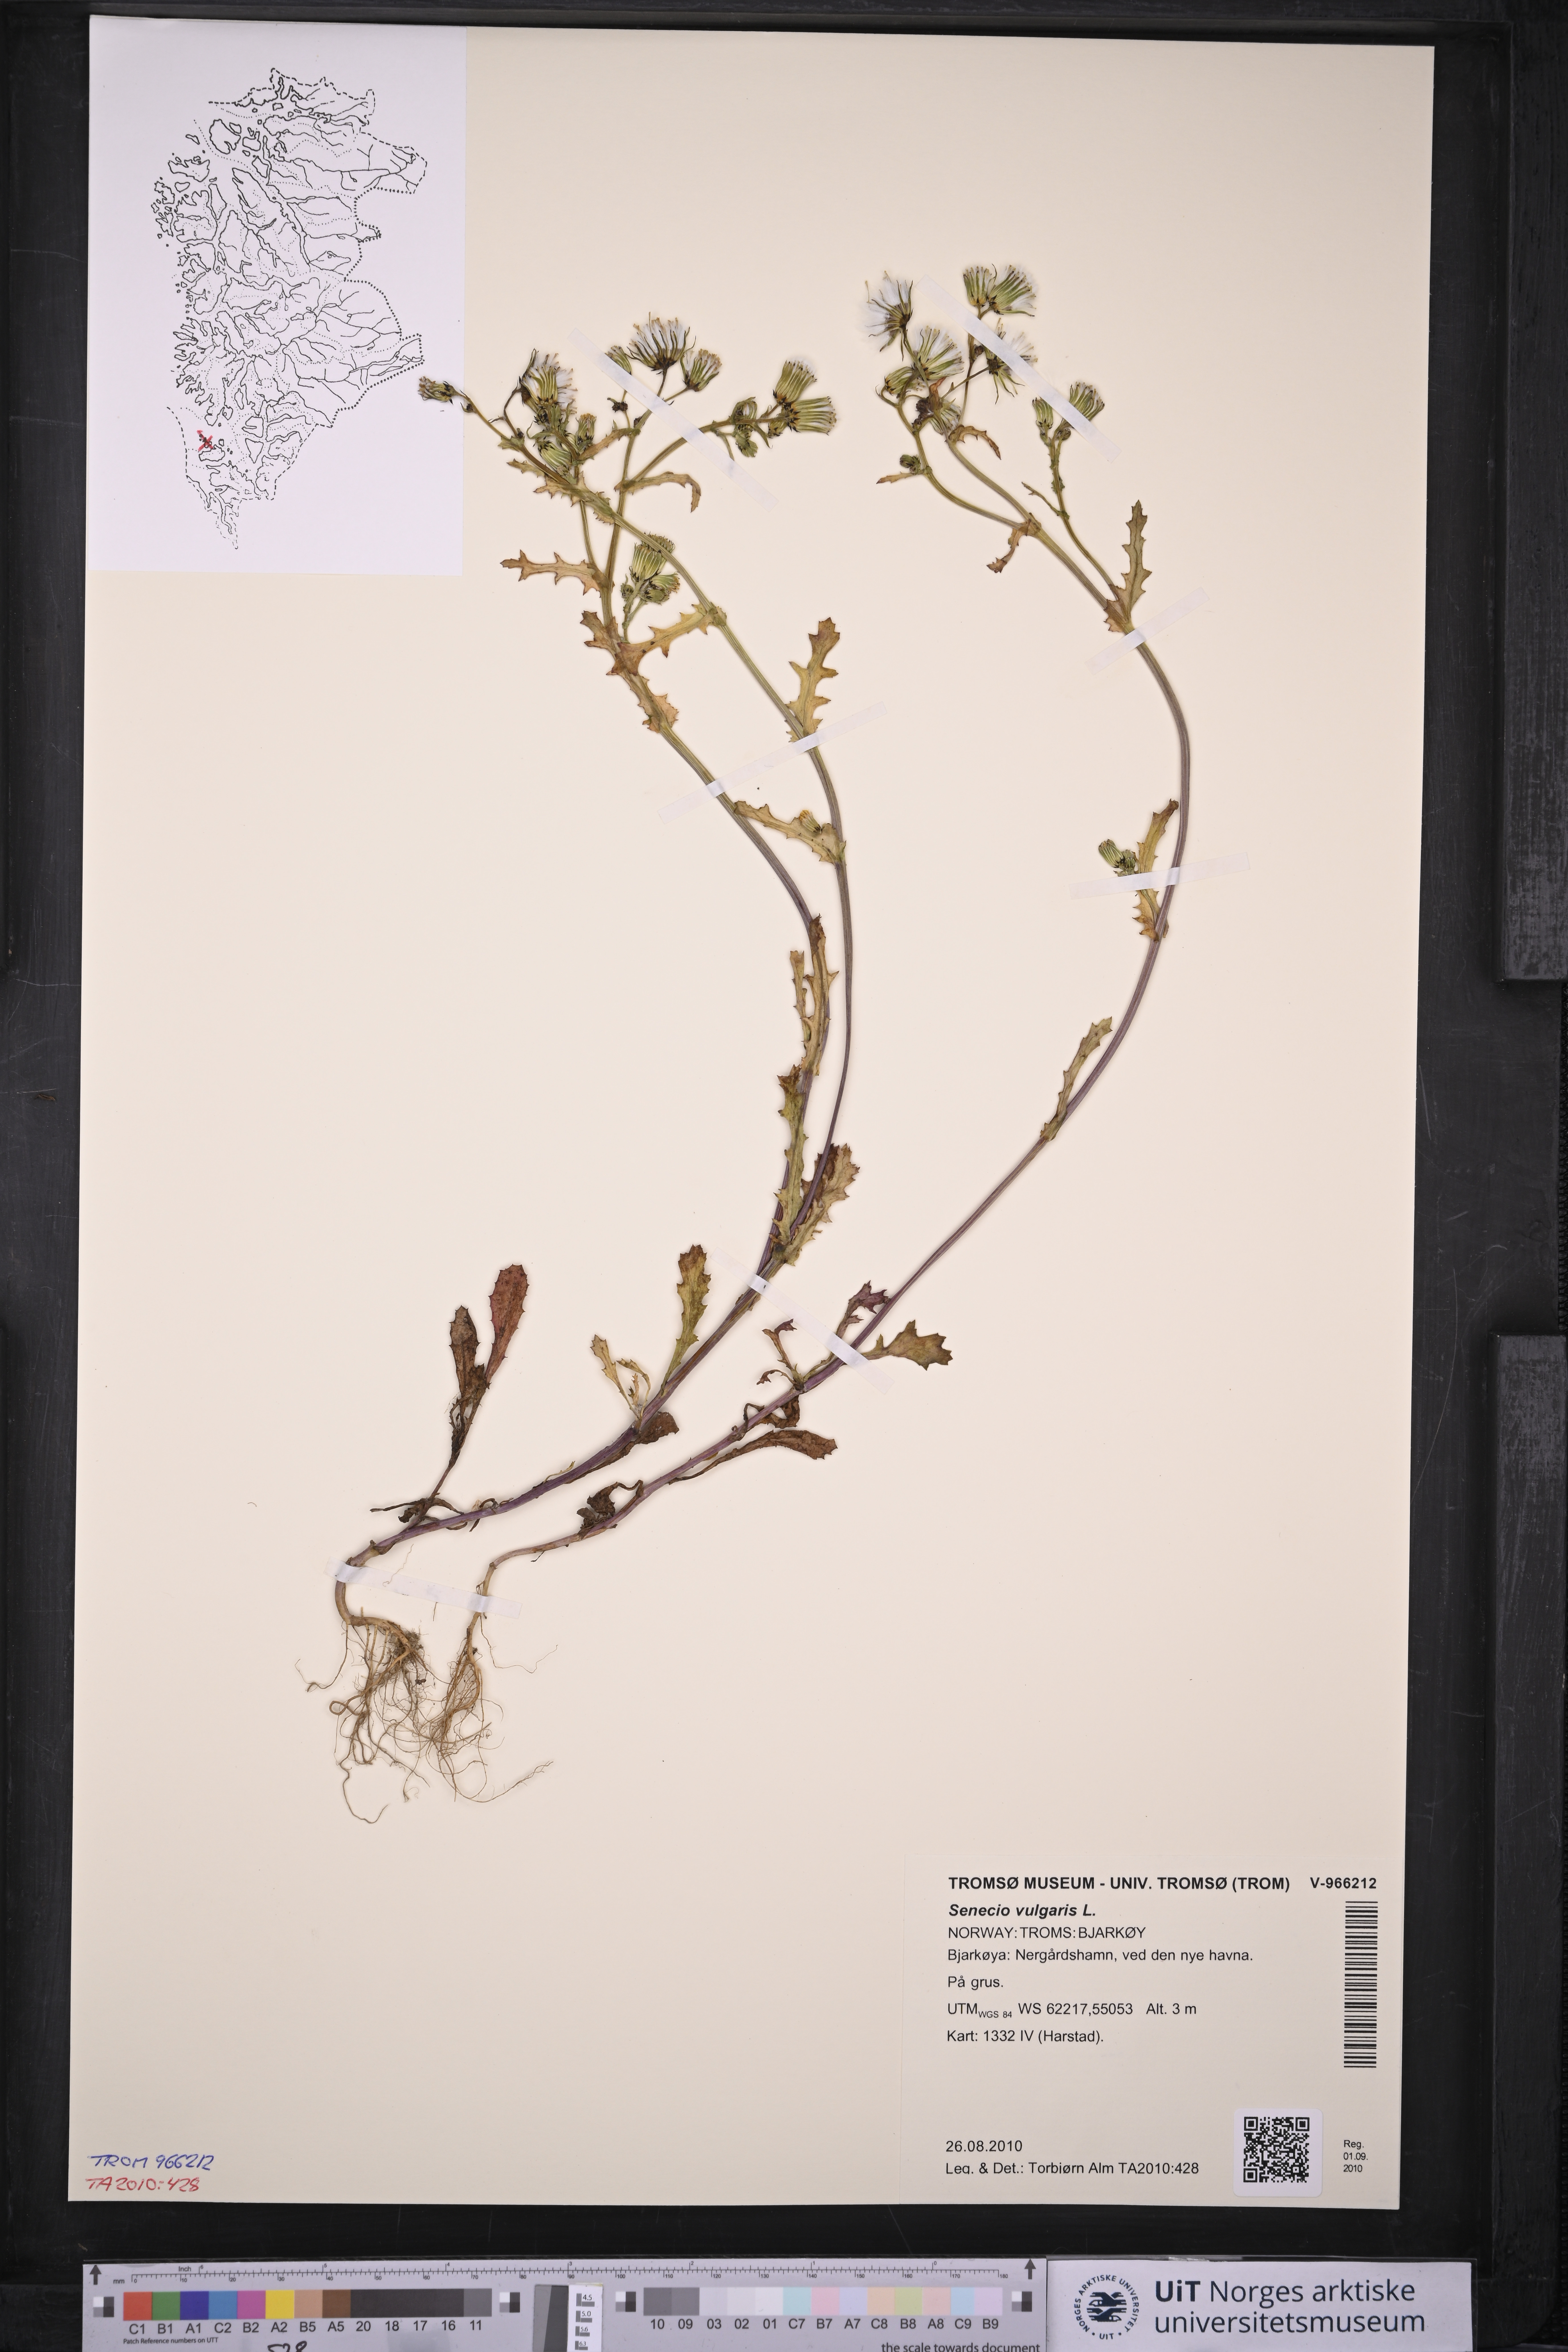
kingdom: Plantae
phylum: Tracheophyta
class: Magnoliopsida
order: Asterales
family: Asteraceae
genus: Senecio
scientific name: Senecio vulgaris
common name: Old-man-in-the-spring
